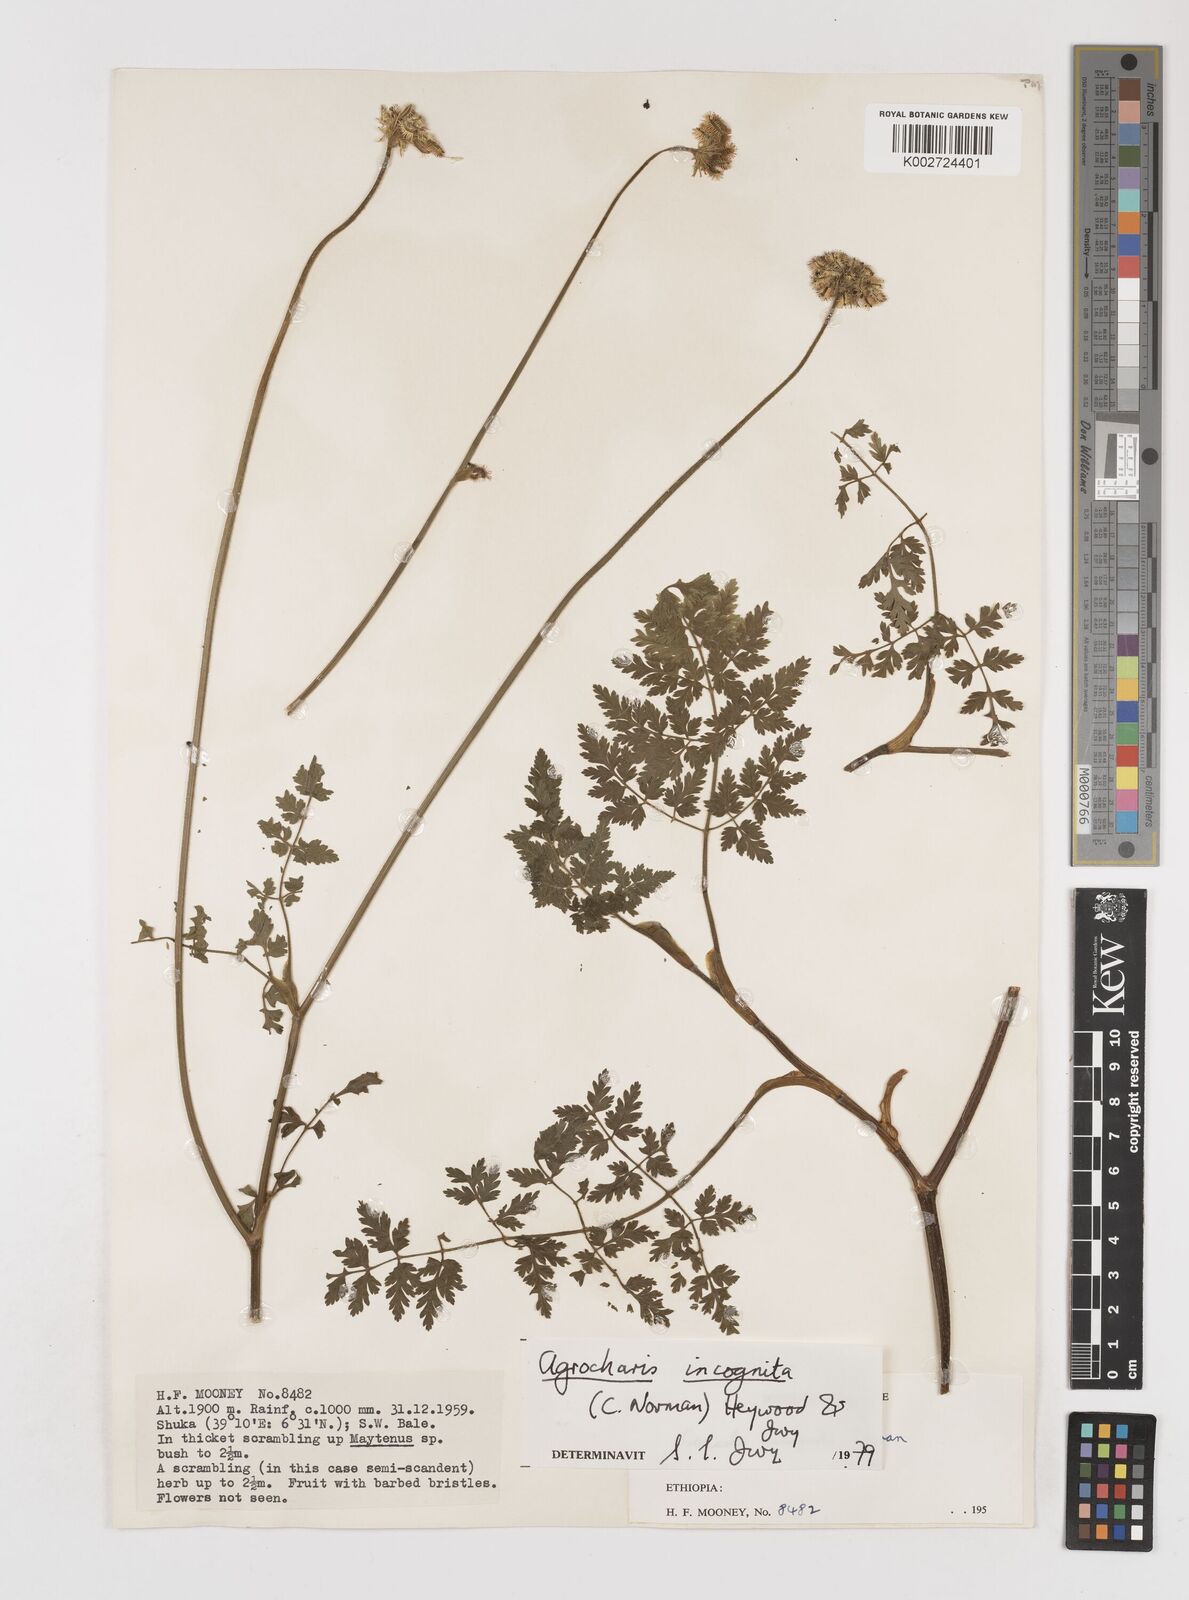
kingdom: Plantae
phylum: Tracheophyta
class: Magnoliopsida
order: Apiales
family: Apiaceae
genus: Daucus
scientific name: Daucus incognitus
